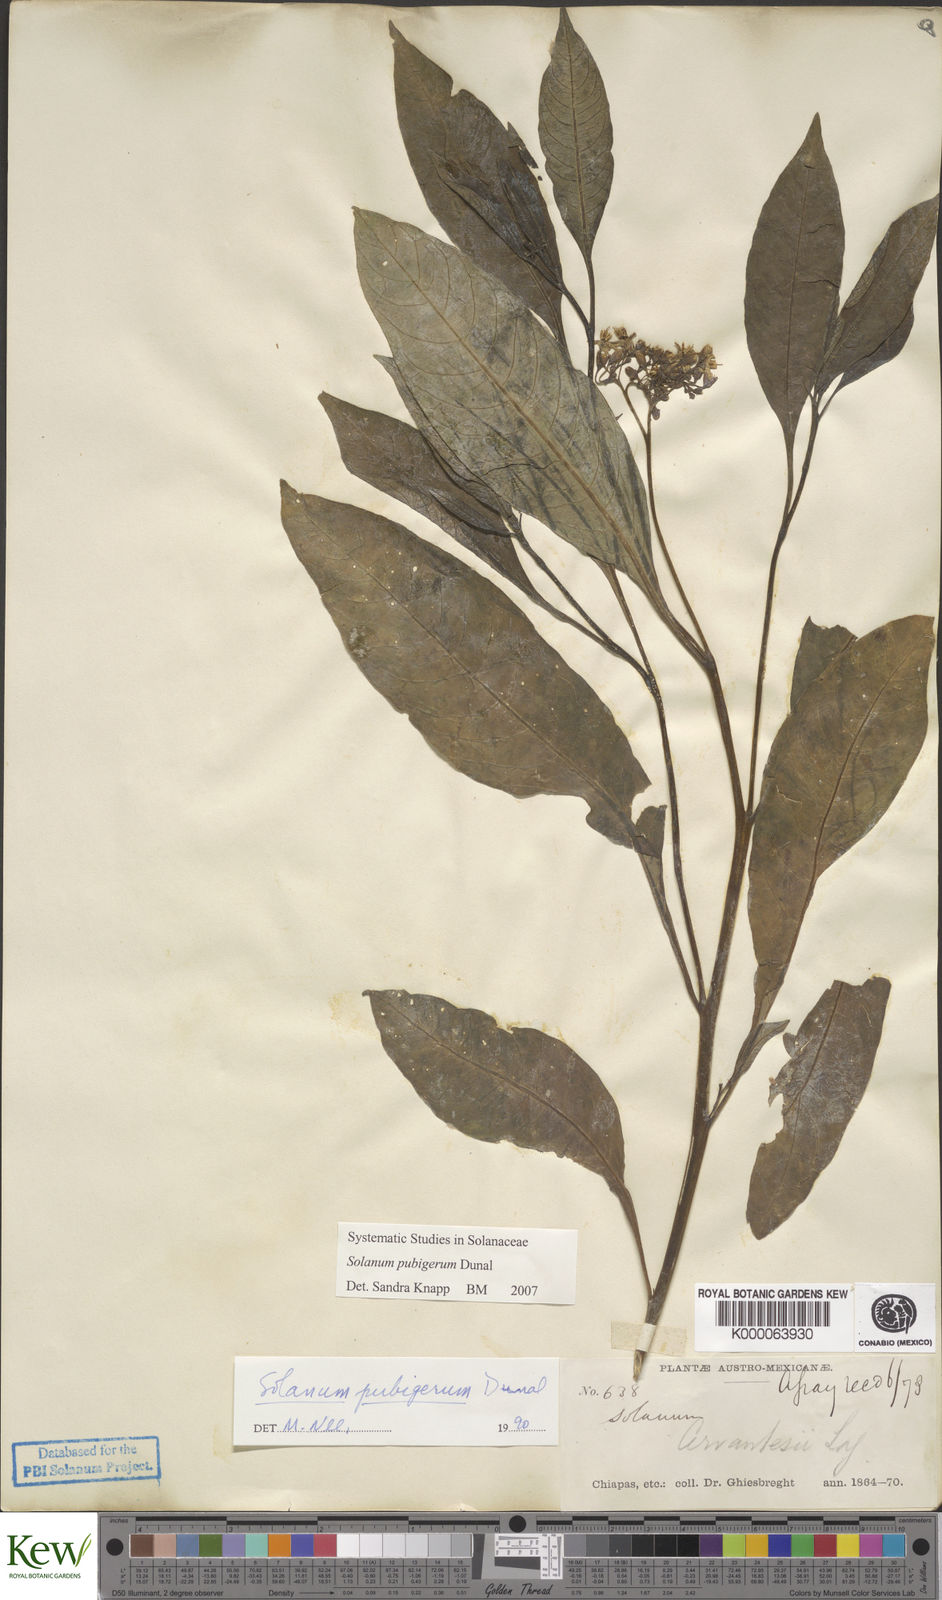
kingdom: Plantae
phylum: Tracheophyta
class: Magnoliopsida
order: Solanales
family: Solanaceae
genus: Solanum
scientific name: Solanum pubigerum
